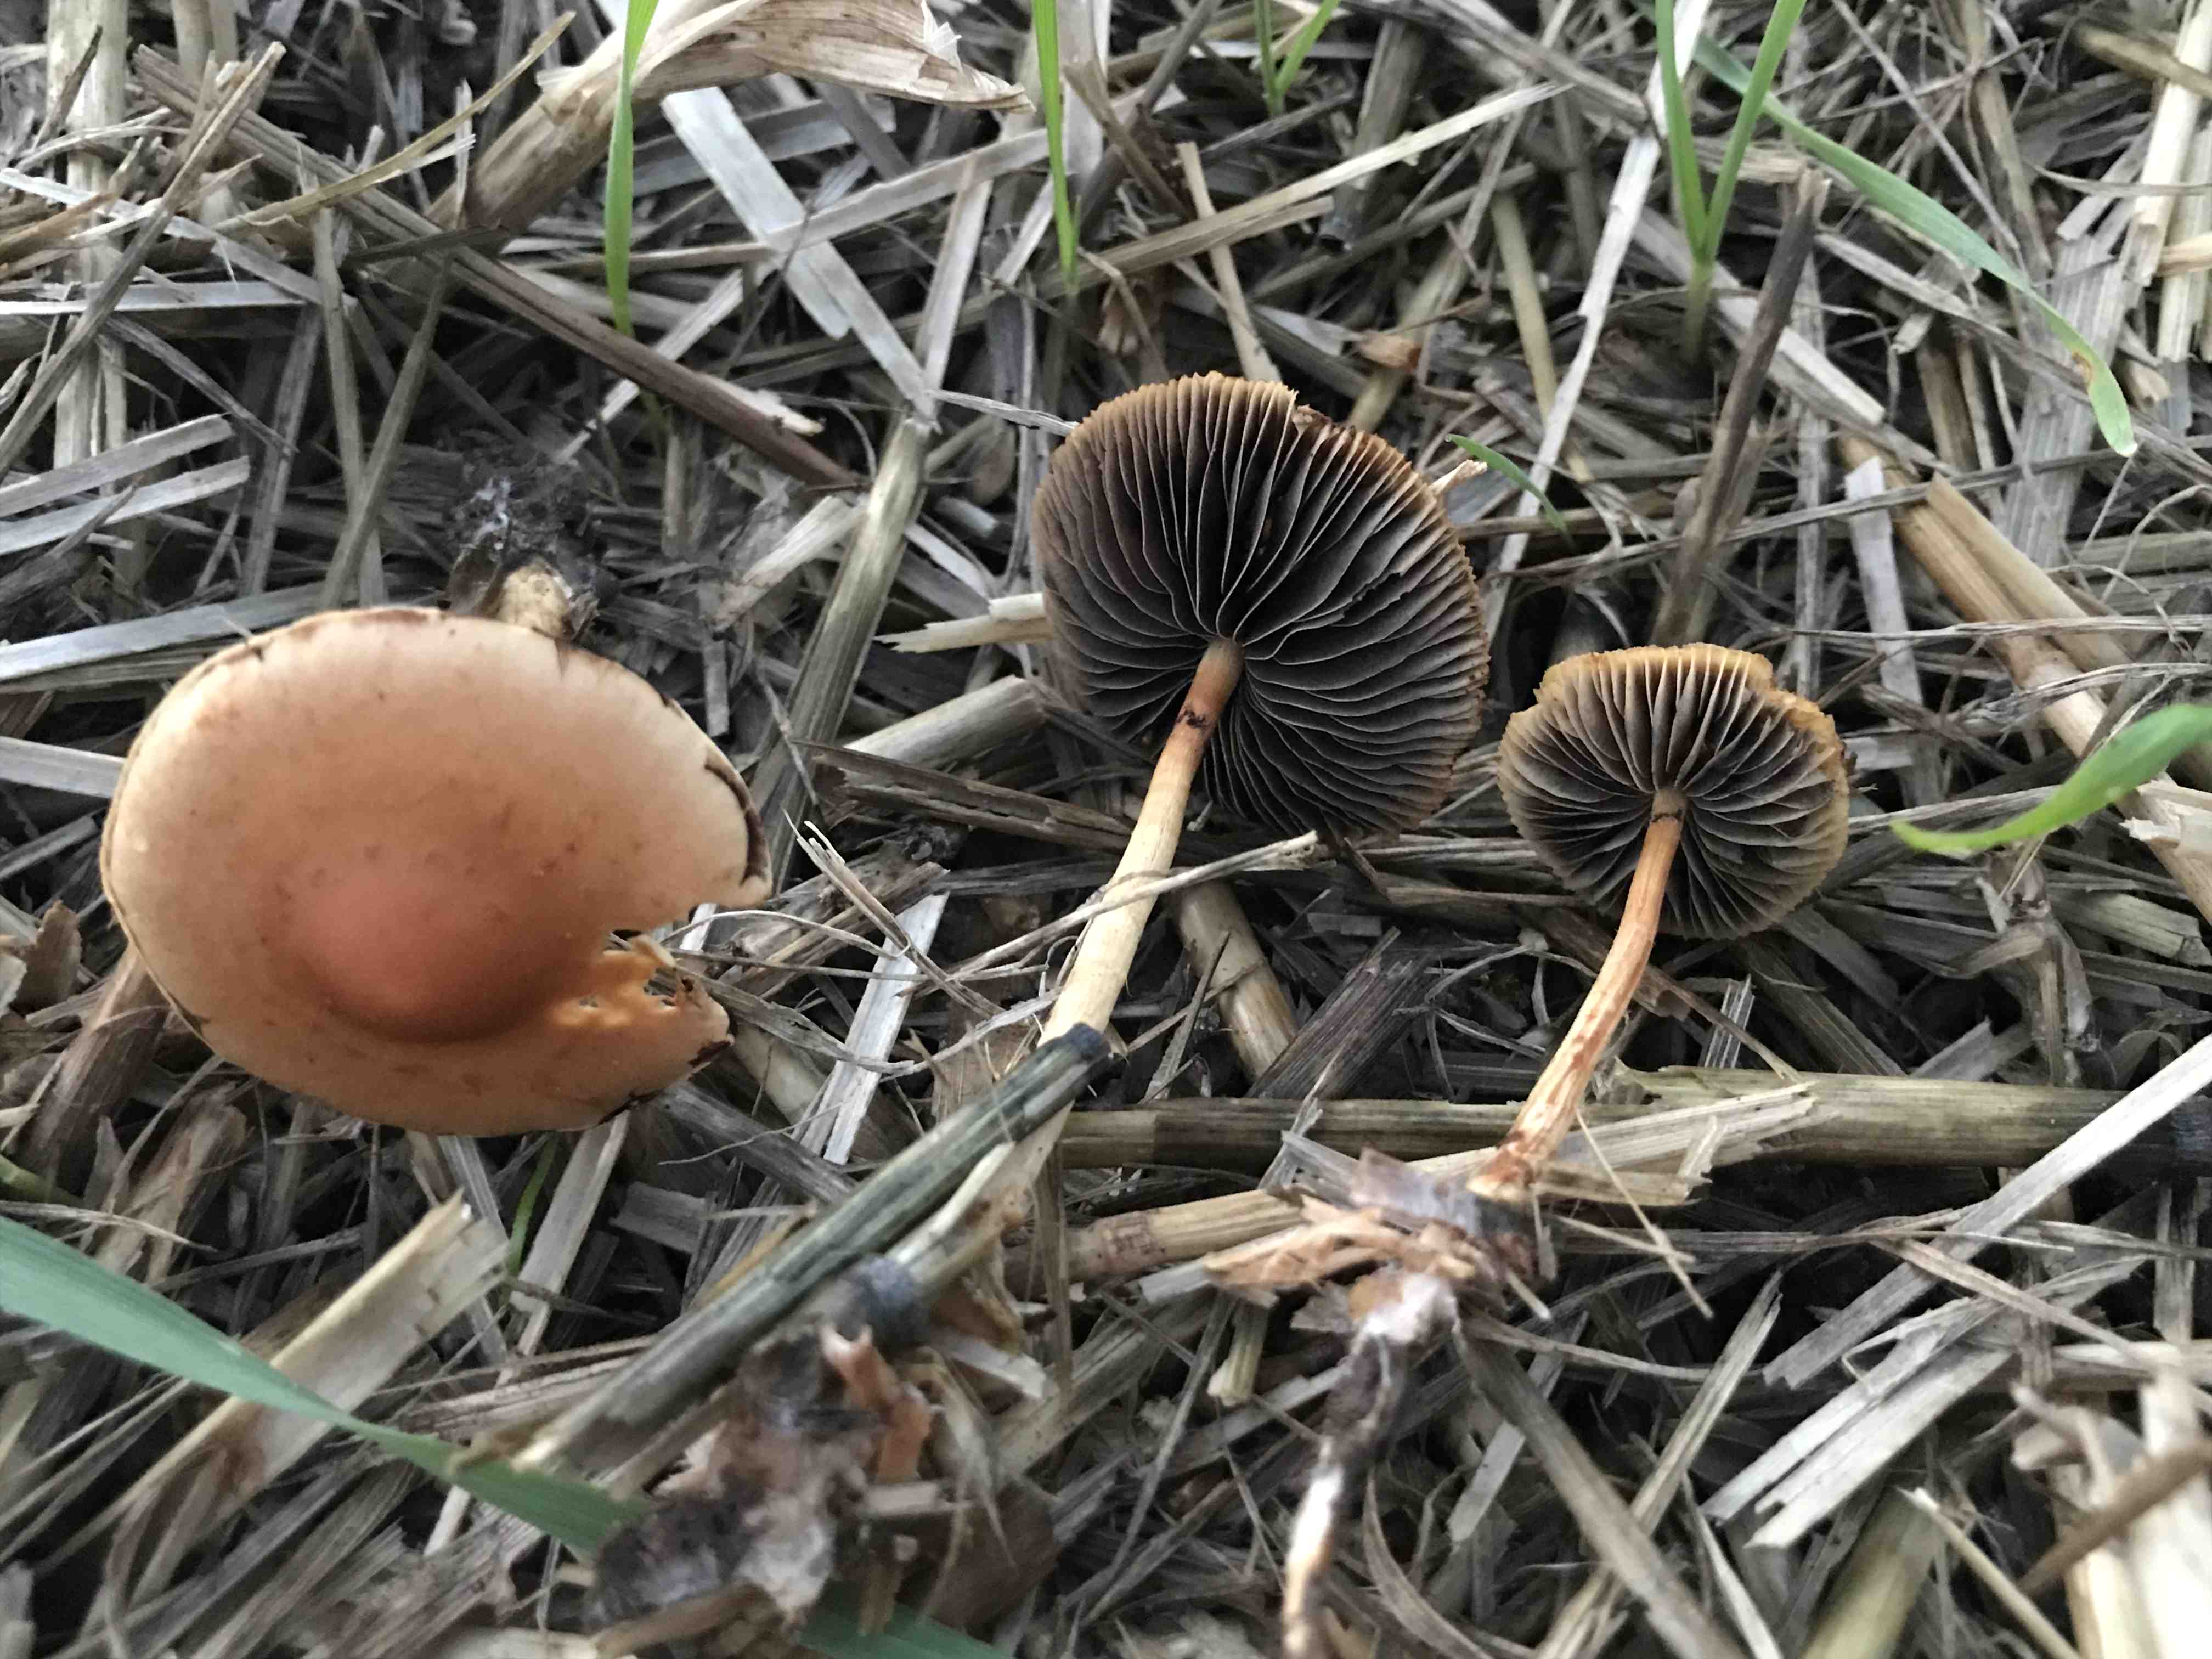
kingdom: Fungi
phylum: Basidiomycota
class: Agaricomycetes
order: Agaricales
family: Strophariaceae
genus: Hypholoma
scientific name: Hypholoma
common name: svovlhat
